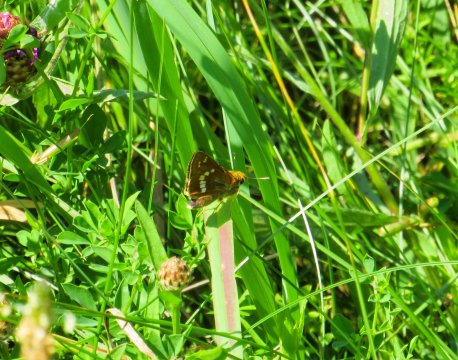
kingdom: Animalia
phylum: Arthropoda
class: Insecta
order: Lepidoptera
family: Hesperiidae
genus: Hesperia
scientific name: Hesperia leonardus
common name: Leonard's Skipper
